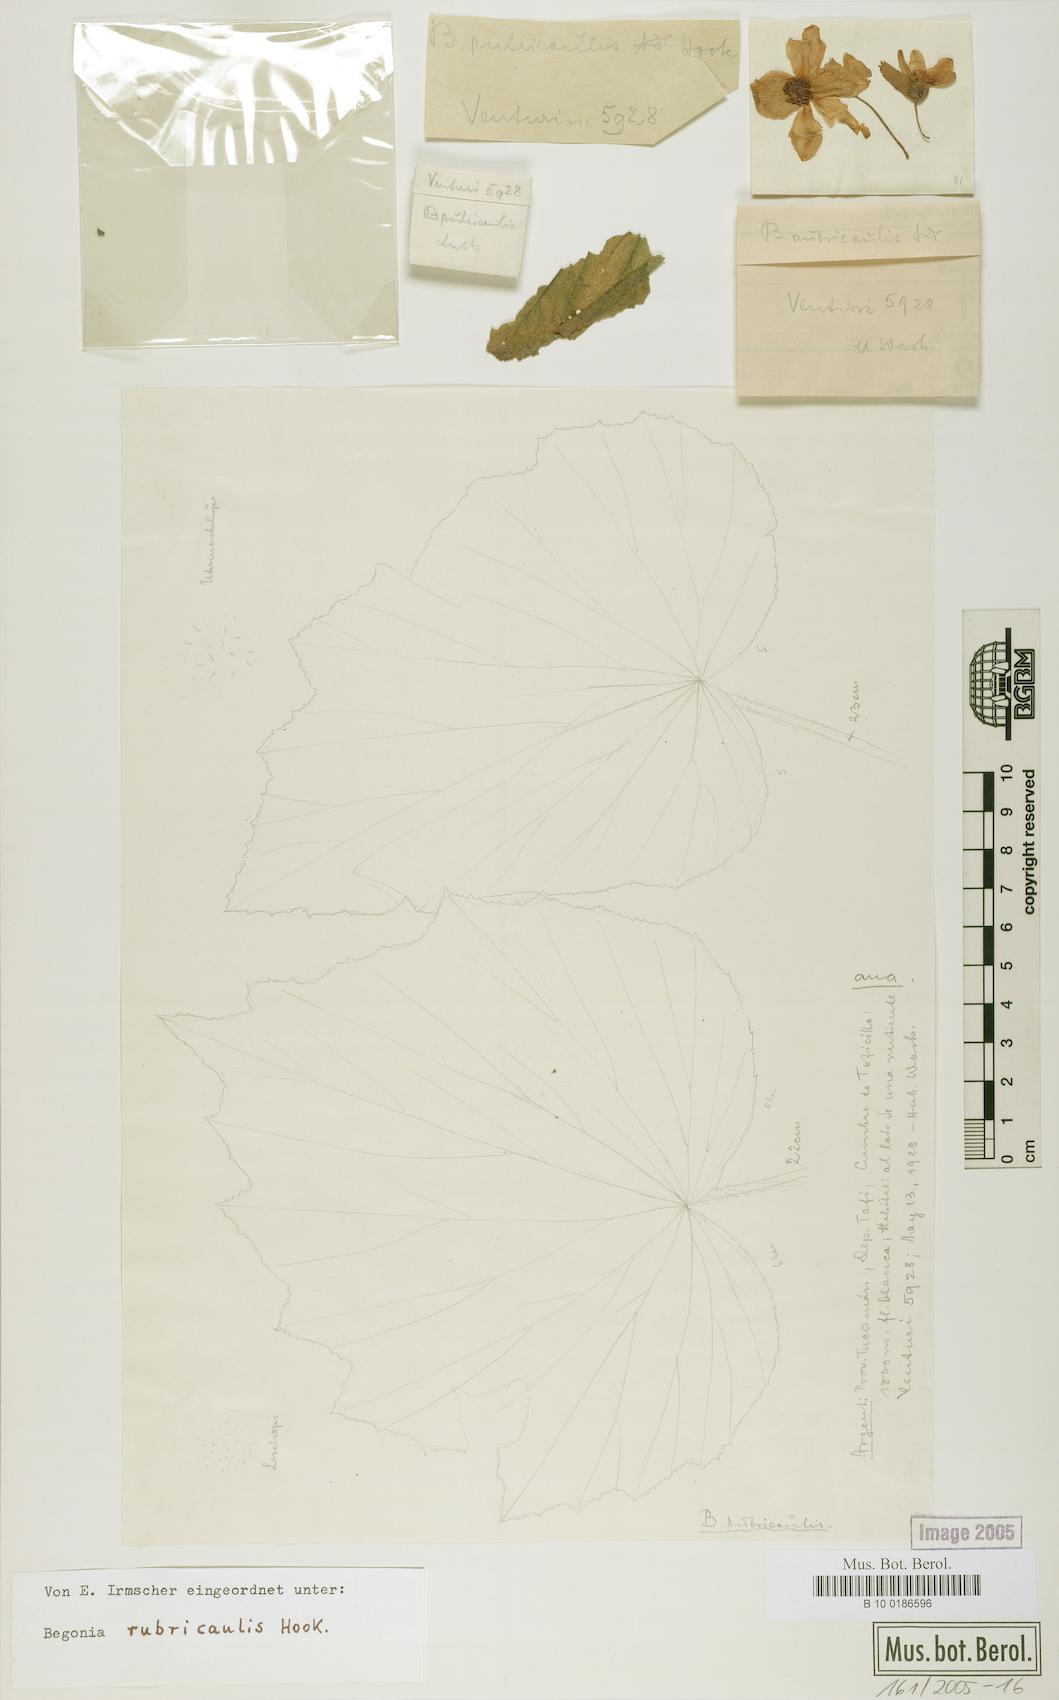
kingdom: Plantae
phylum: Tracheophyta
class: Magnoliopsida
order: Cucurbitales
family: Begoniaceae
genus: Begonia
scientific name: Begonia rubricaulis
